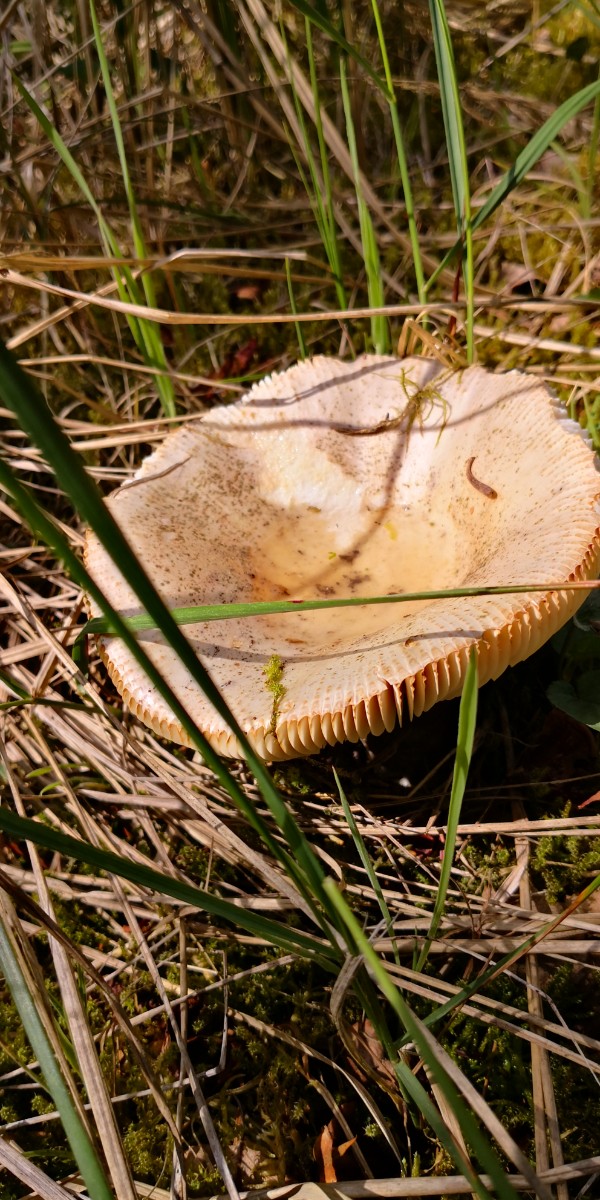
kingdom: Fungi
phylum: Basidiomycota
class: Agaricomycetes
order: Russulales
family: Russulaceae
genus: Russula
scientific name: Russula
